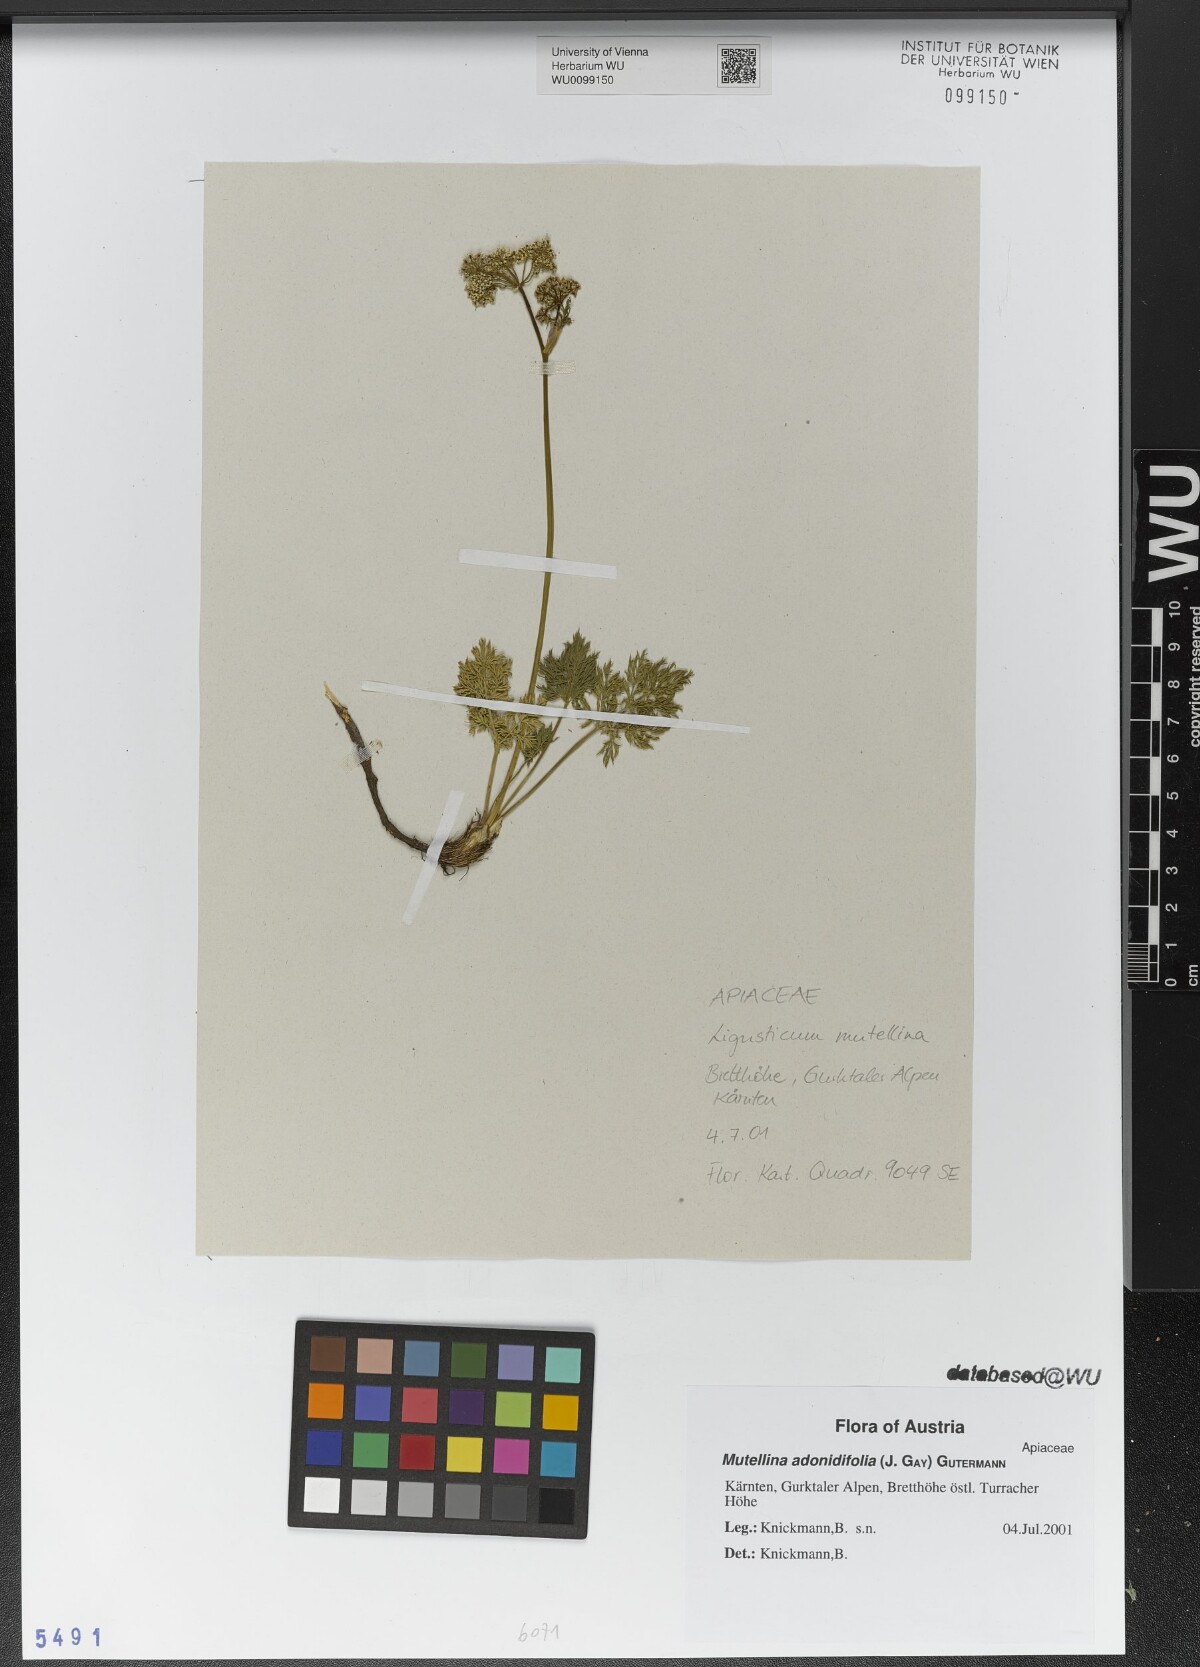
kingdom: Plantae
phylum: Tracheophyta
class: Magnoliopsida
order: Apiales
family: Apiaceae
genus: Mutellina
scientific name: Mutellina adonidifolia
